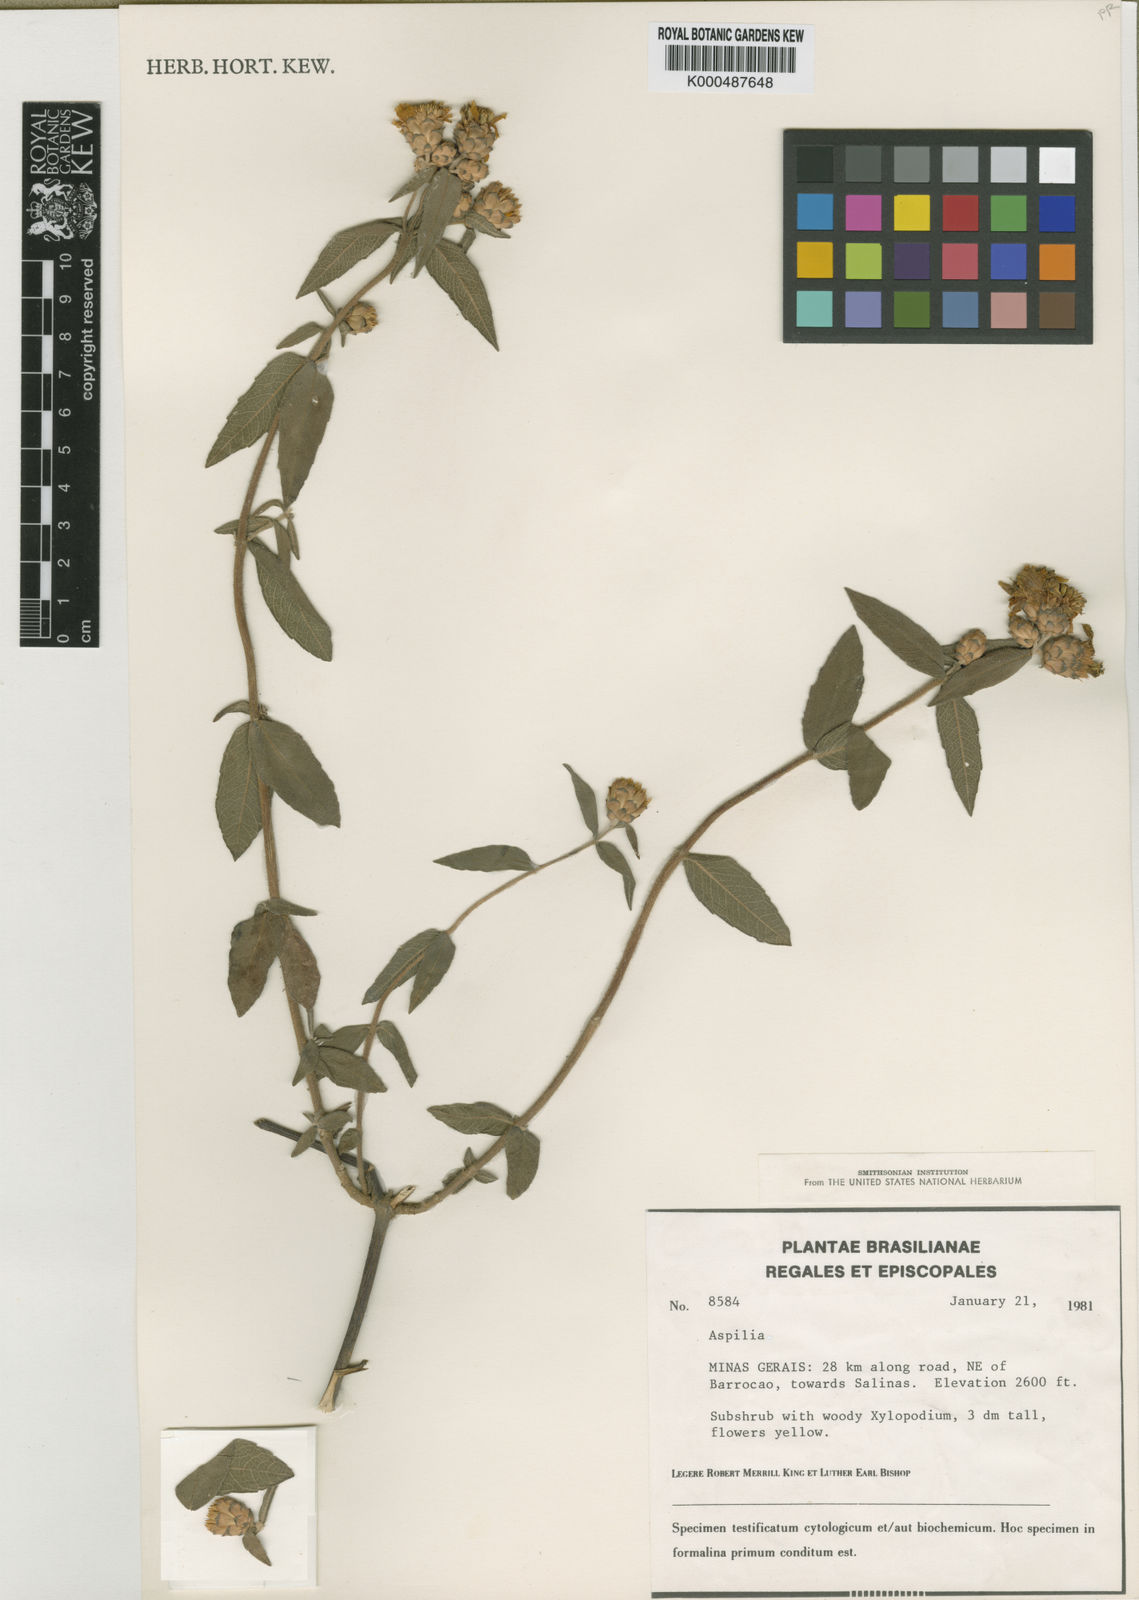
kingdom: Plantae
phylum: Tracheophyta
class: Magnoliopsida
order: Asterales
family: Asteraceae
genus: Wedelia
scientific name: Wedelia bishoplecta
